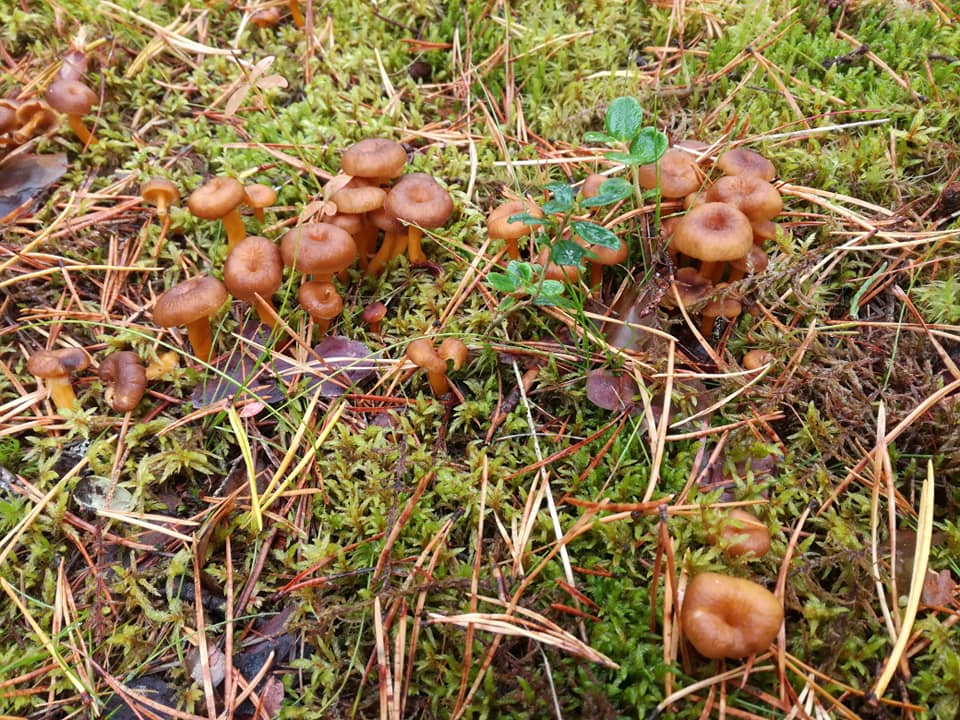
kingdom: Fungi
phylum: Basidiomycota
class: Agaricomycetes
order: Cantharellales
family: Hydnaceae
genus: Craterellus
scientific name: Craterellus tubaeformis
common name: Yellowfoot
